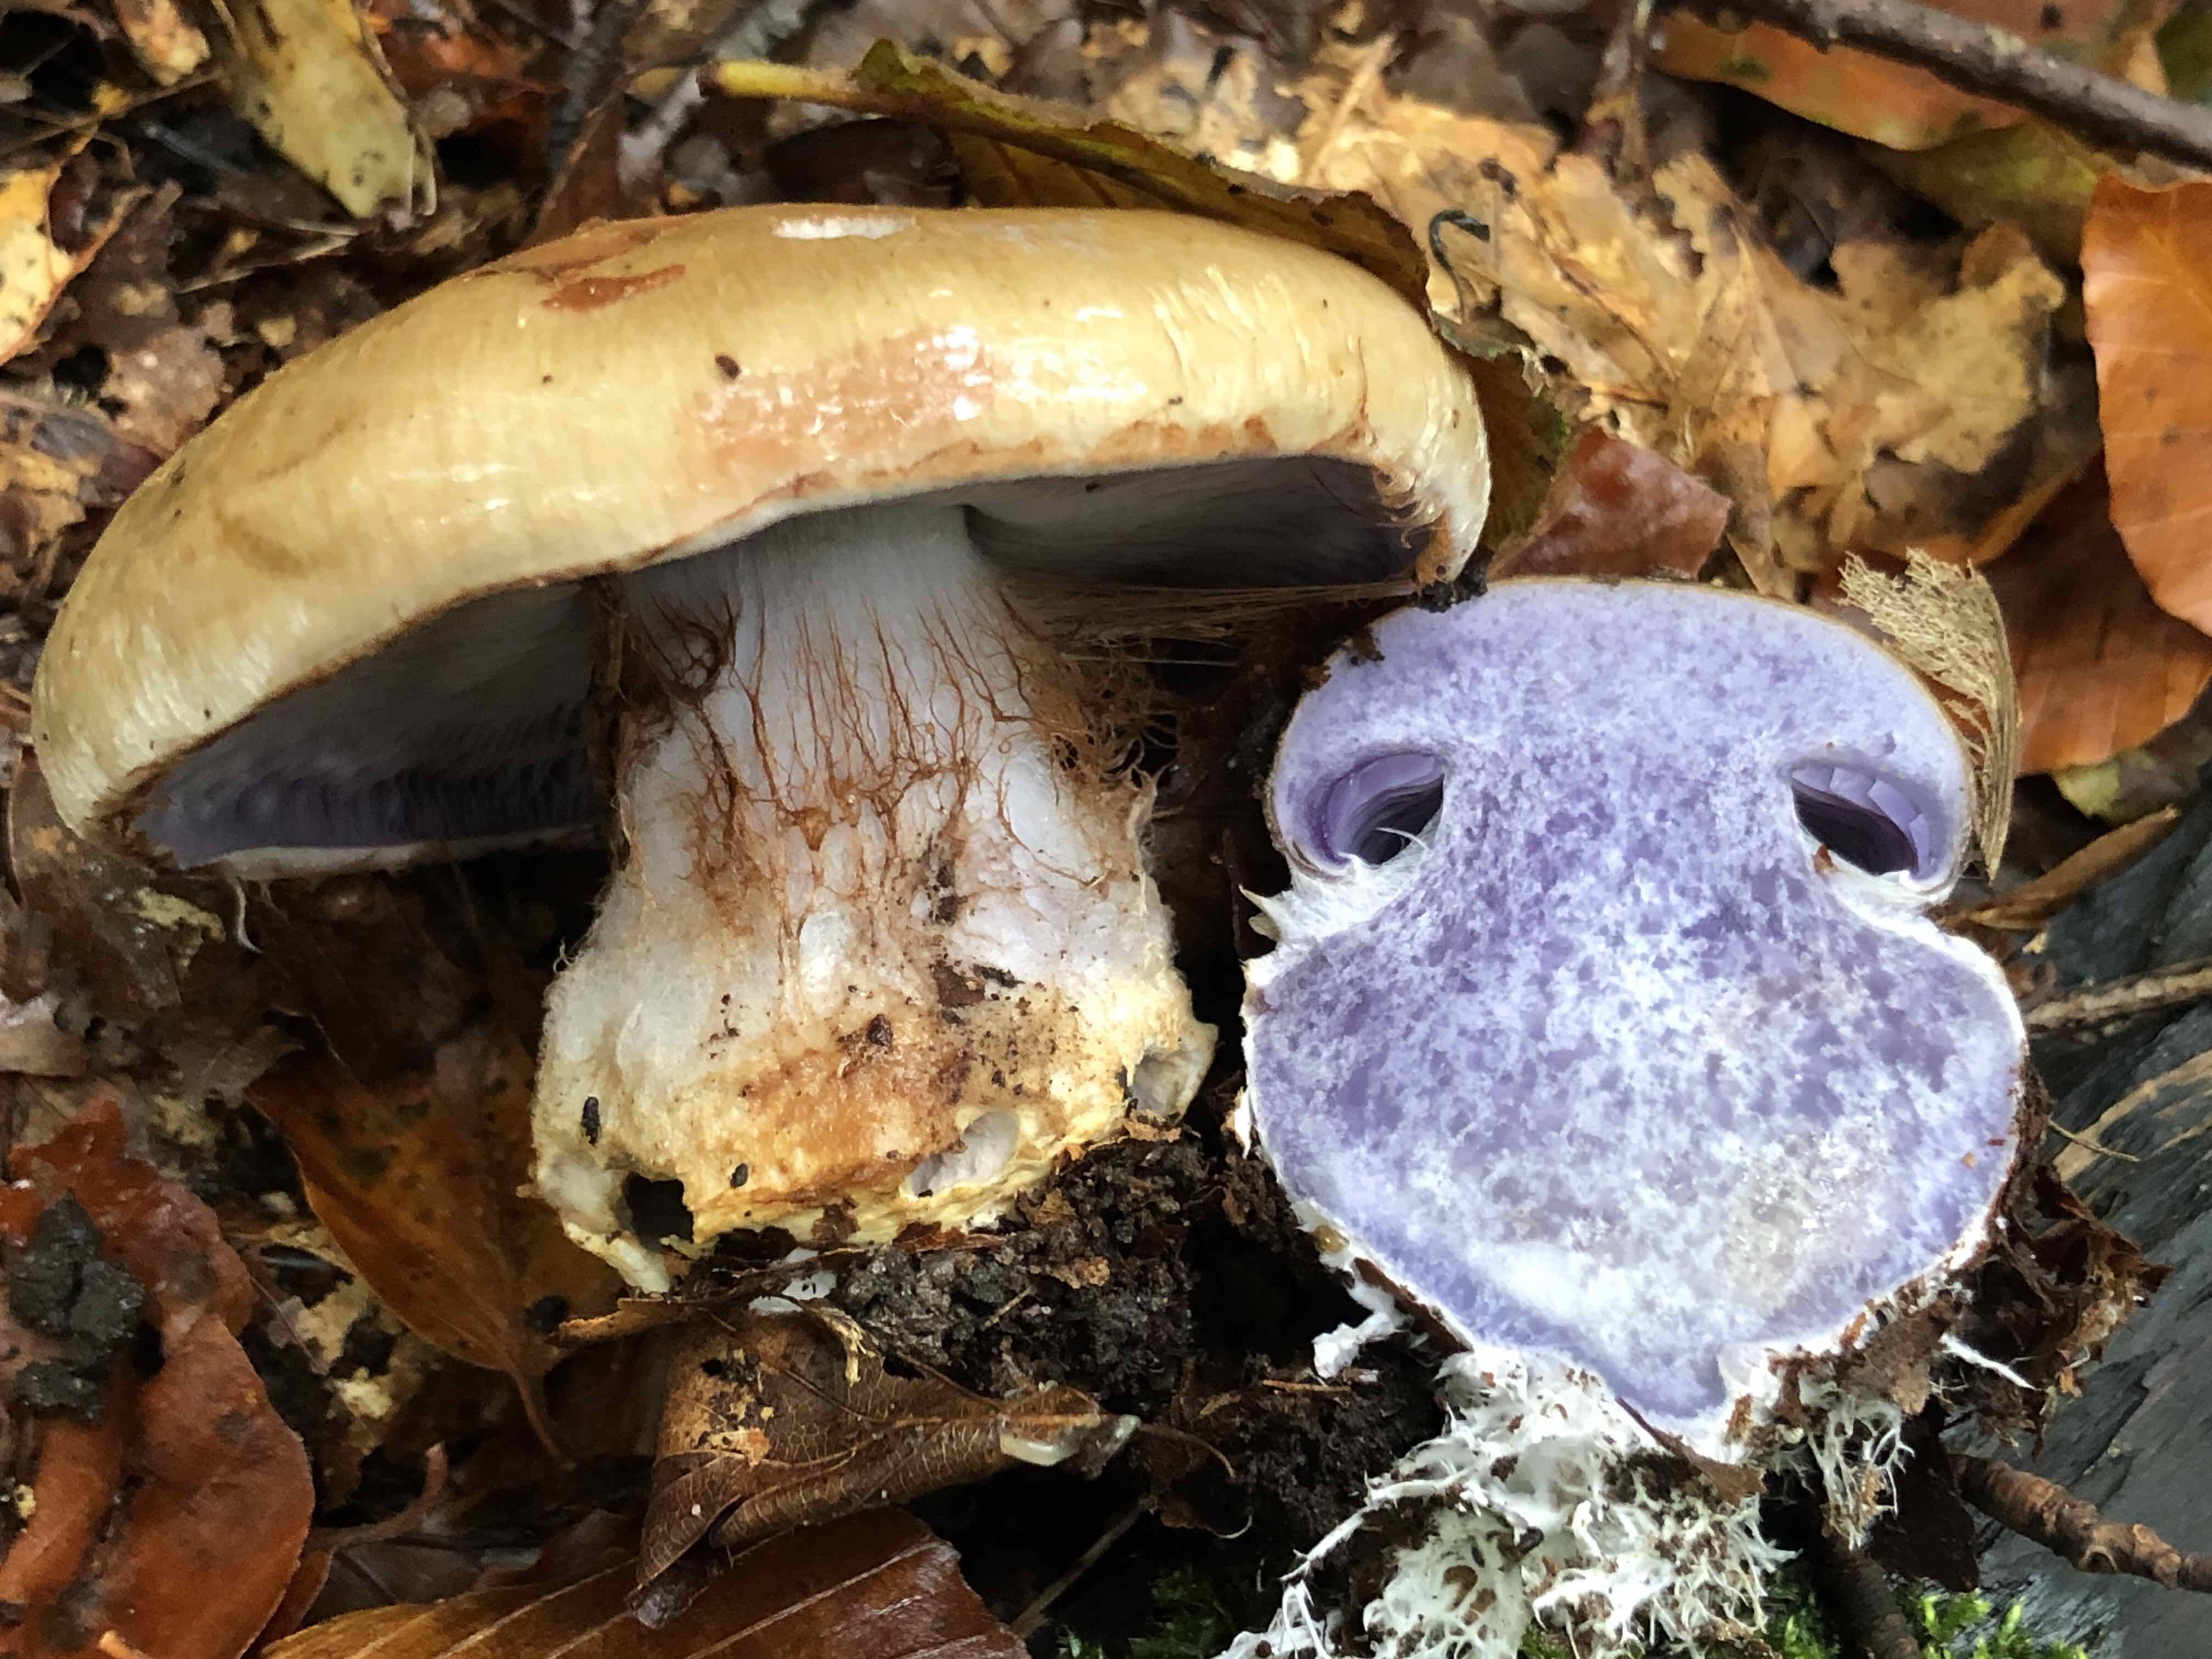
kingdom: Fungi
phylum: Basidiomycota
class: Agaricomycetes
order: Agaricales
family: Cortinariaceae
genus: Cortinarius
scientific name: Cortinarius anserinus
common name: bøge-slørhat
